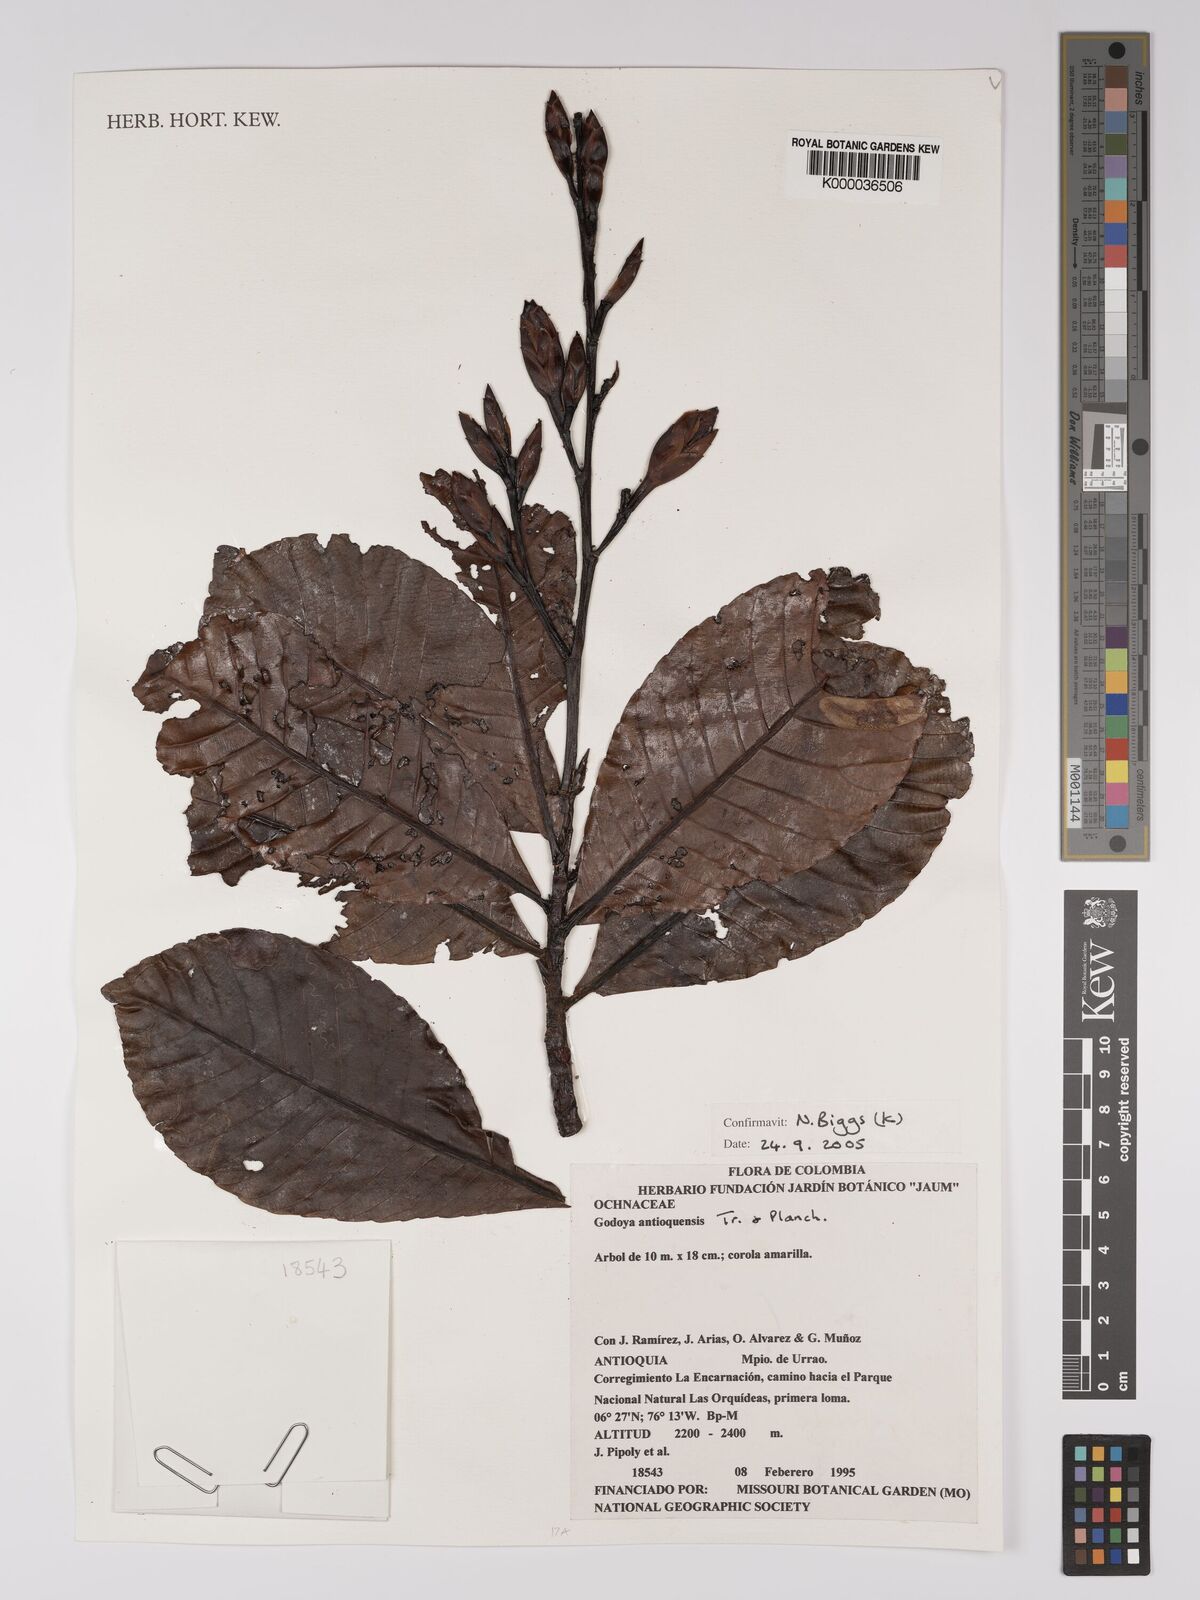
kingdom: Plantae
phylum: Tracheophyta
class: Magnoliopsida
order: Malpighiales
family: Ochnaceae
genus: Godoya
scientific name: Godoya
